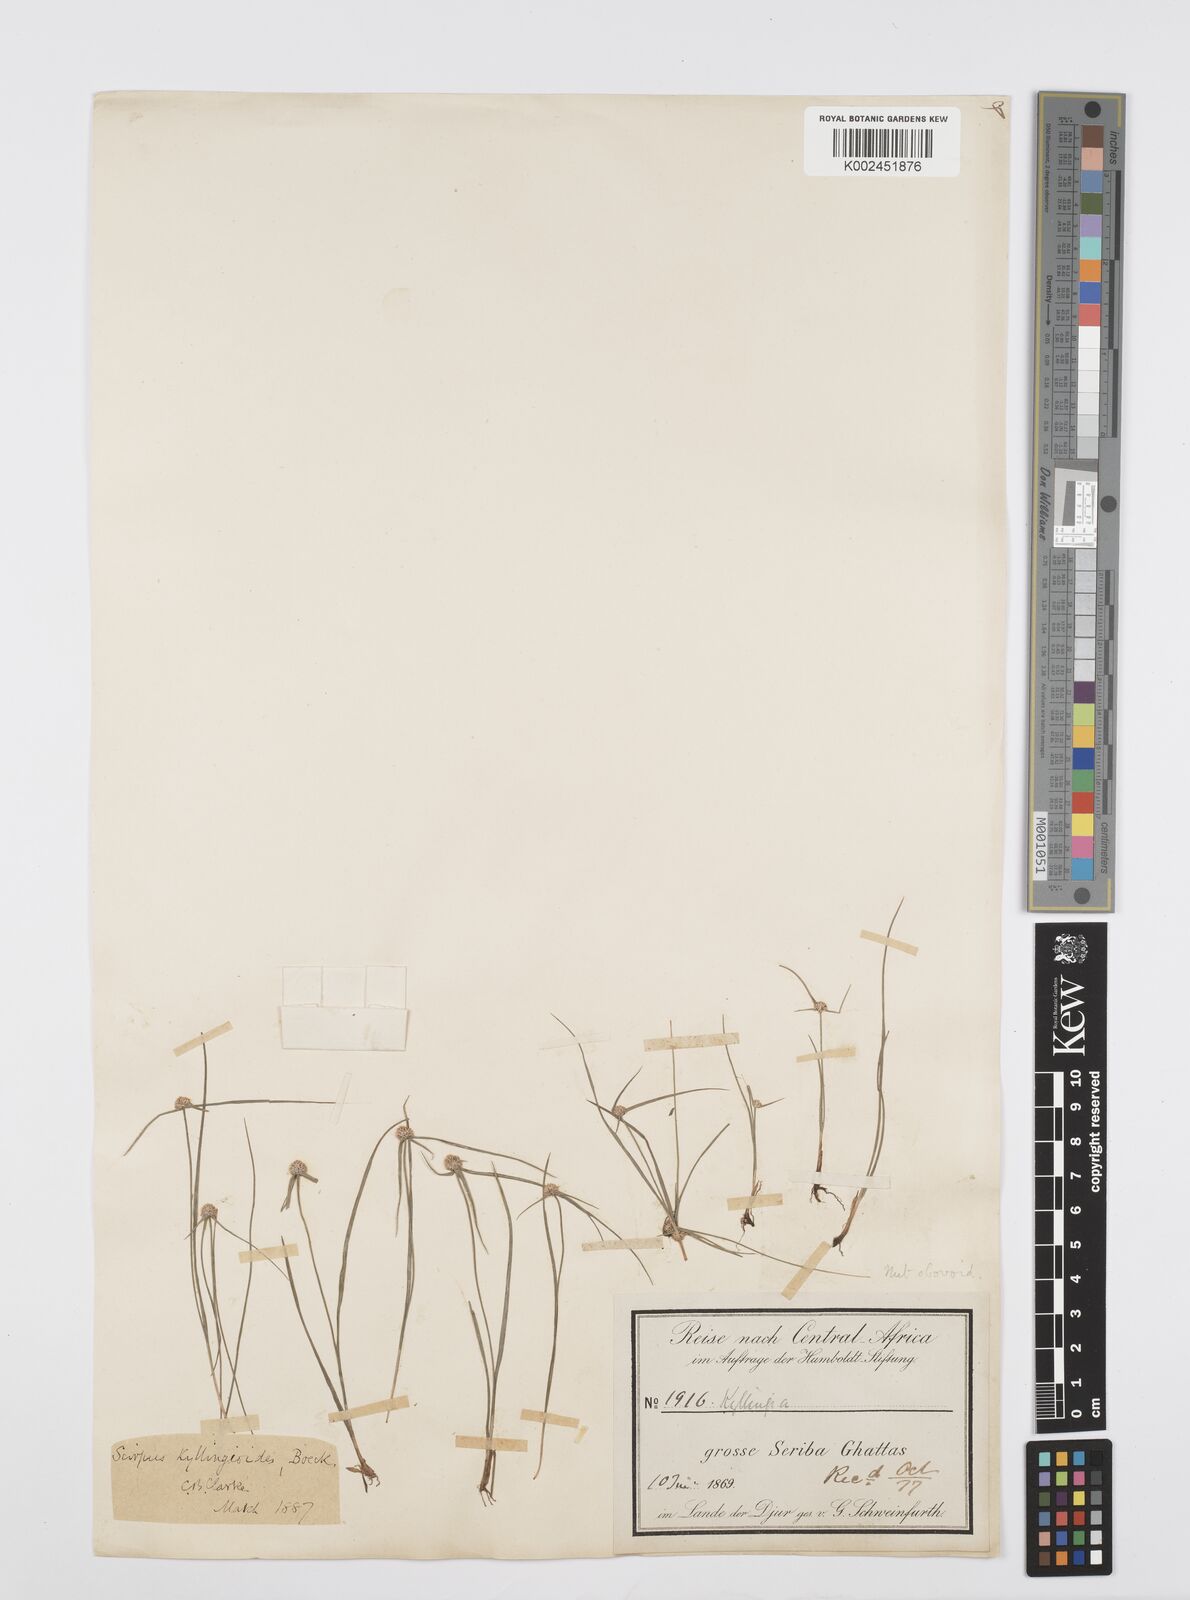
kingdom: Plantae
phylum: Tracheophyta
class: Liliopsida
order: Poales
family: Cyperaceae
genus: Cyperus
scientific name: Cyperus microcephalus
